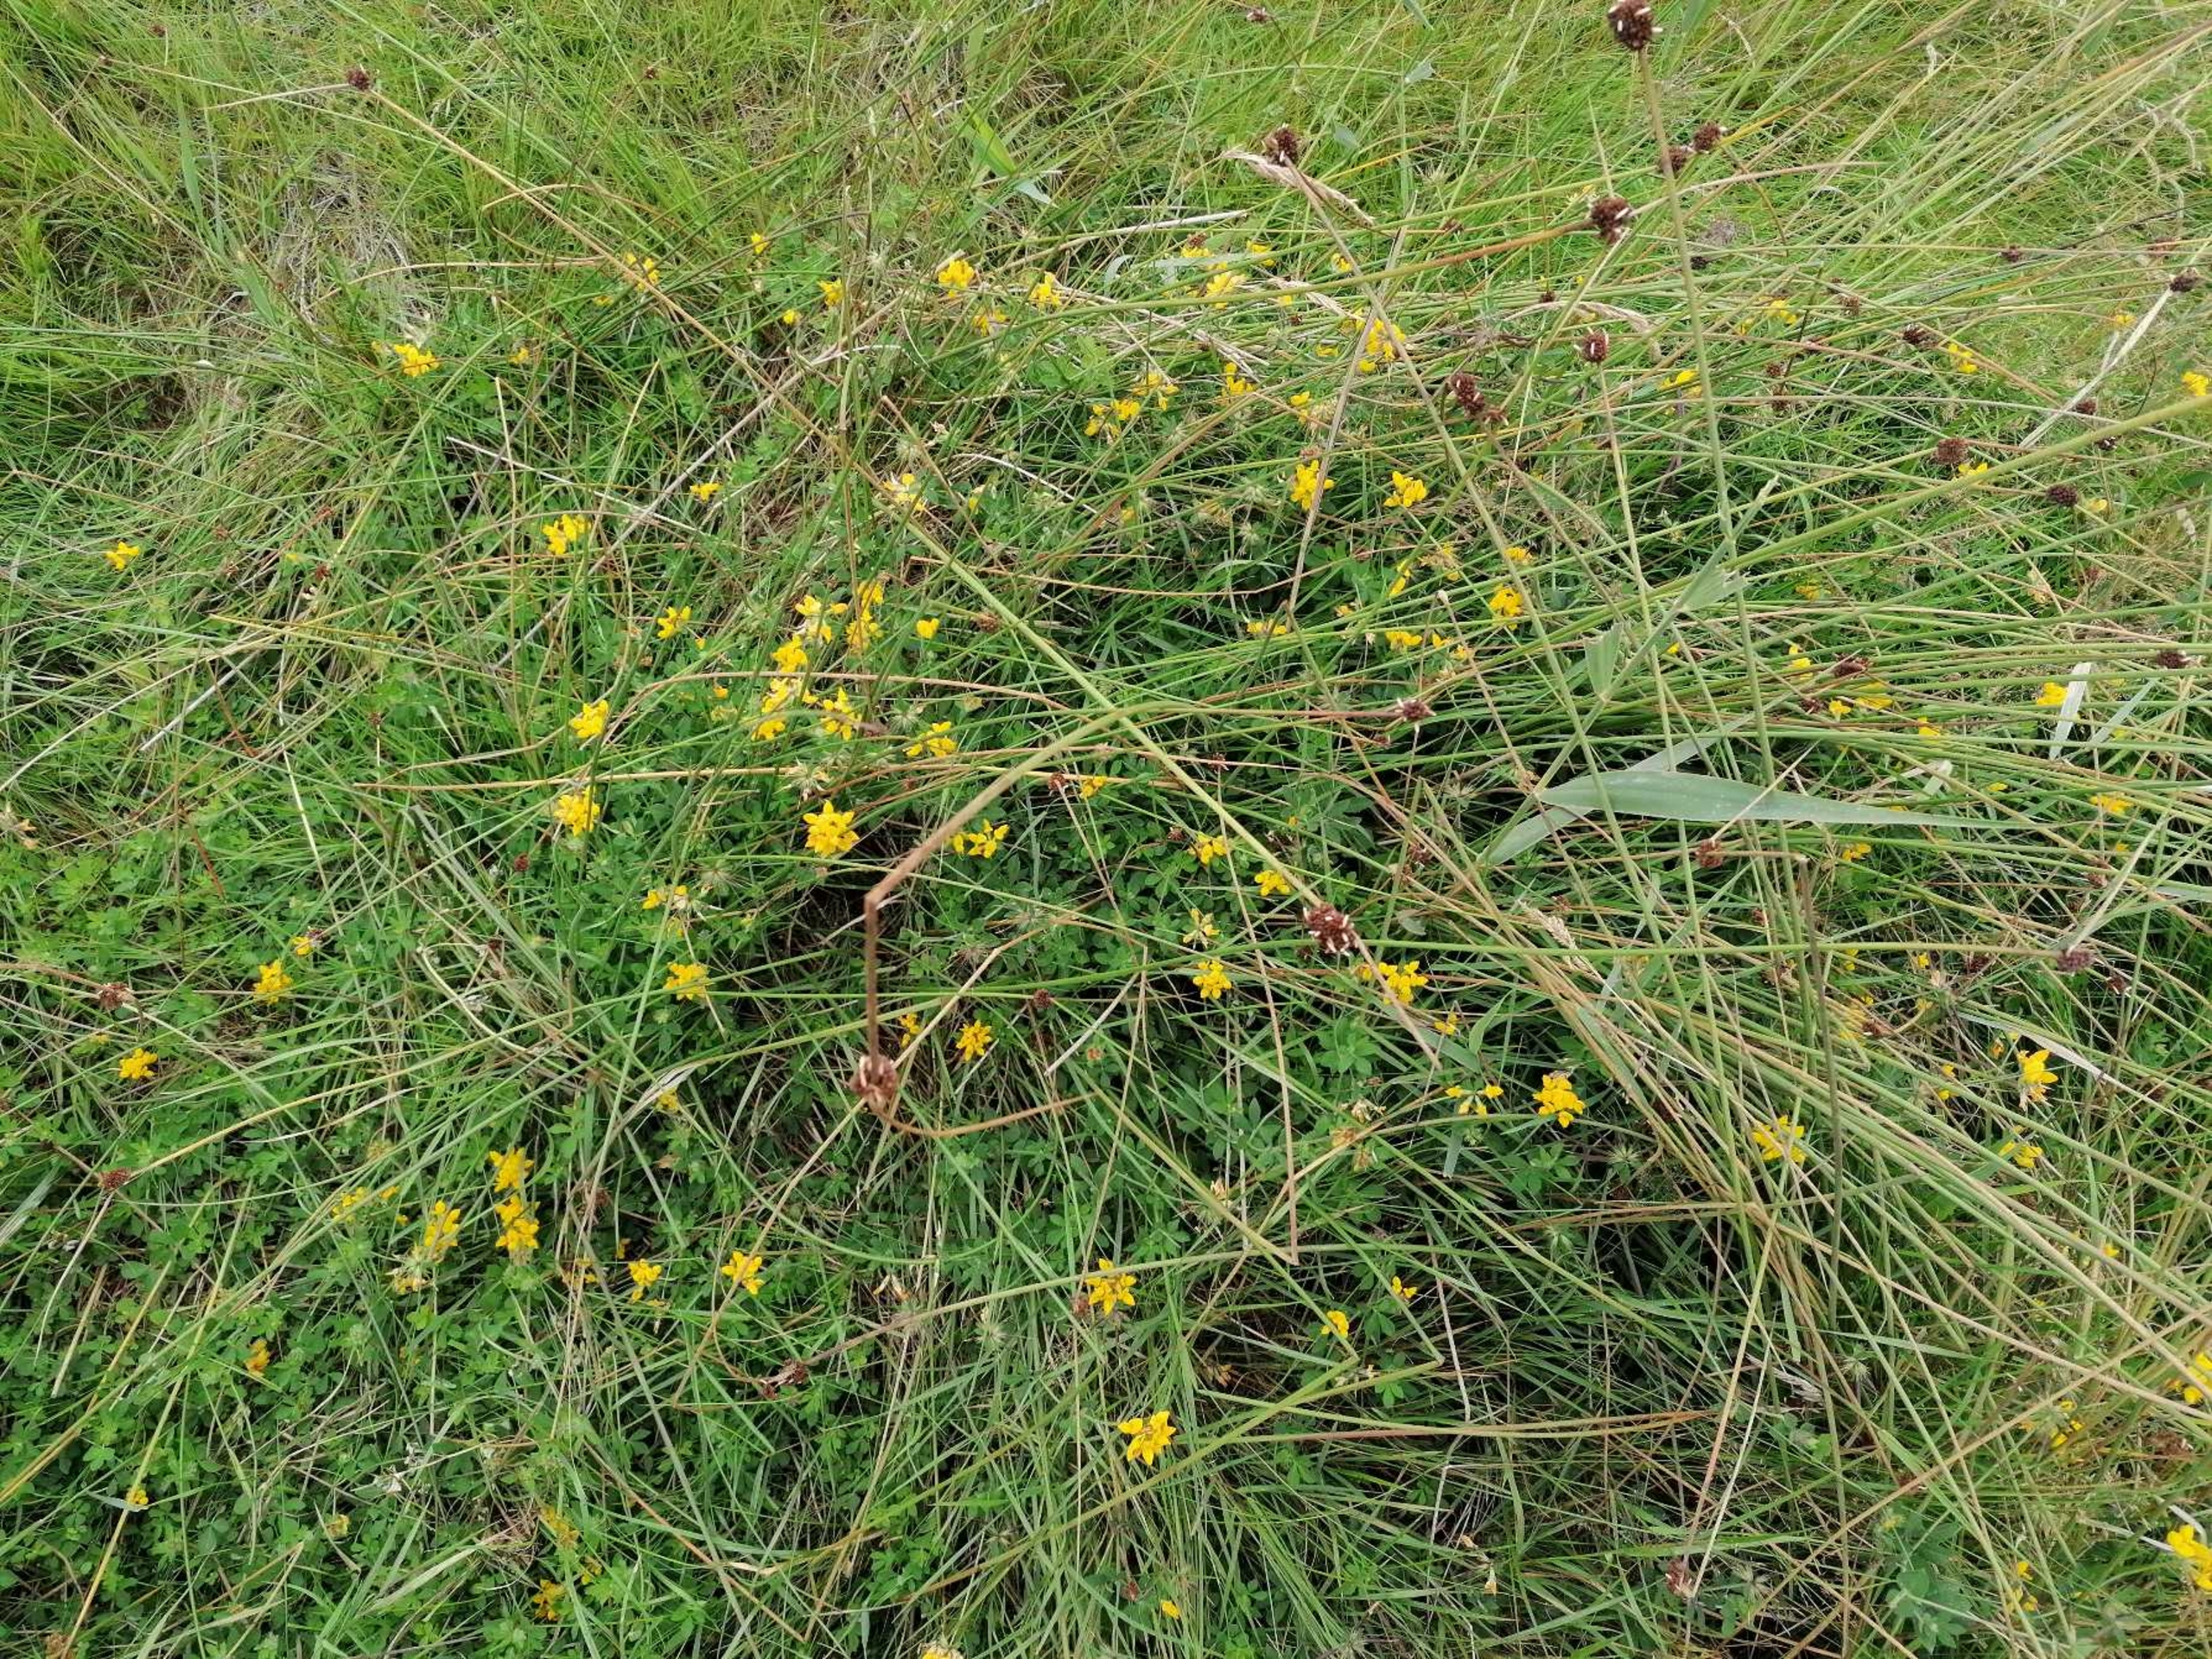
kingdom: Plantae
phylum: Tracheophyta
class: Magnoliopsida
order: Fabales
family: Fabaceae
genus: Lotus
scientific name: Lotus pedunculatus
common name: Sump-kællingetand
